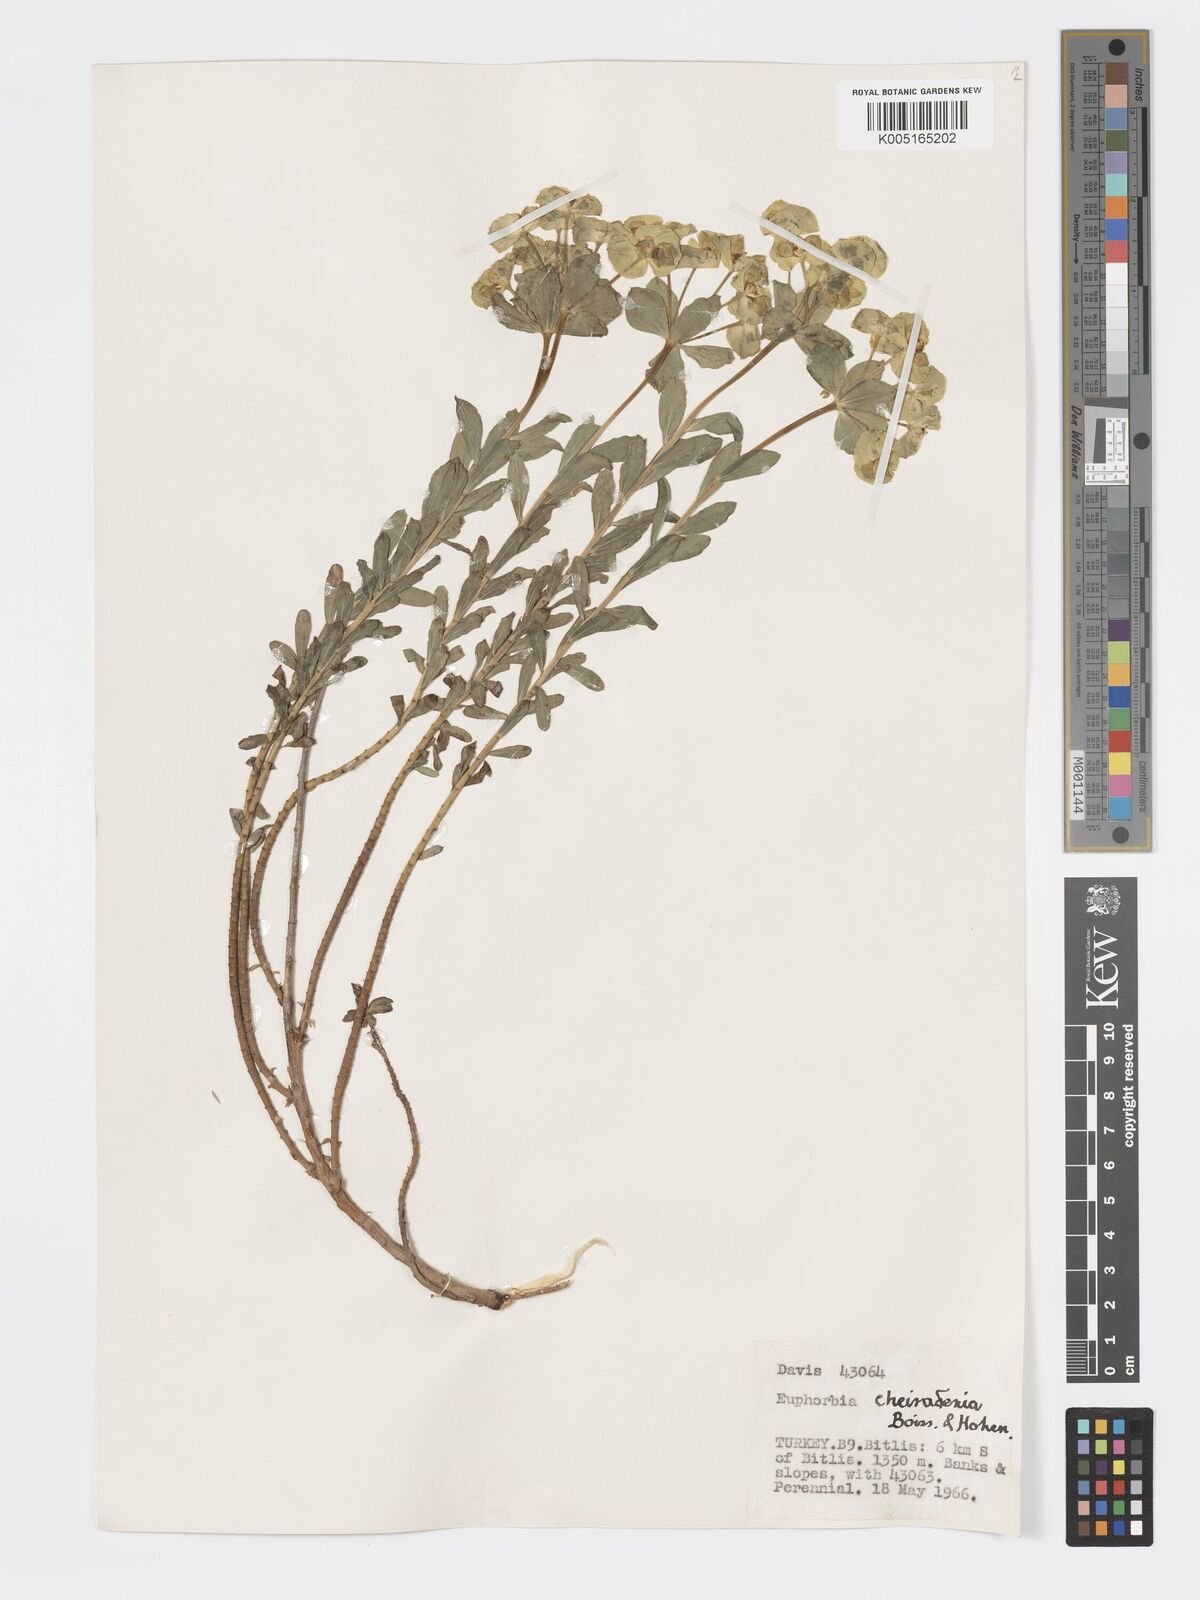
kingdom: Plantae
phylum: Tracheophyta
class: Magnoliopsida
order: Malpighiales
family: Euphorbiaceae
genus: Euphorbia
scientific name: Euphorbia cheiradenia
